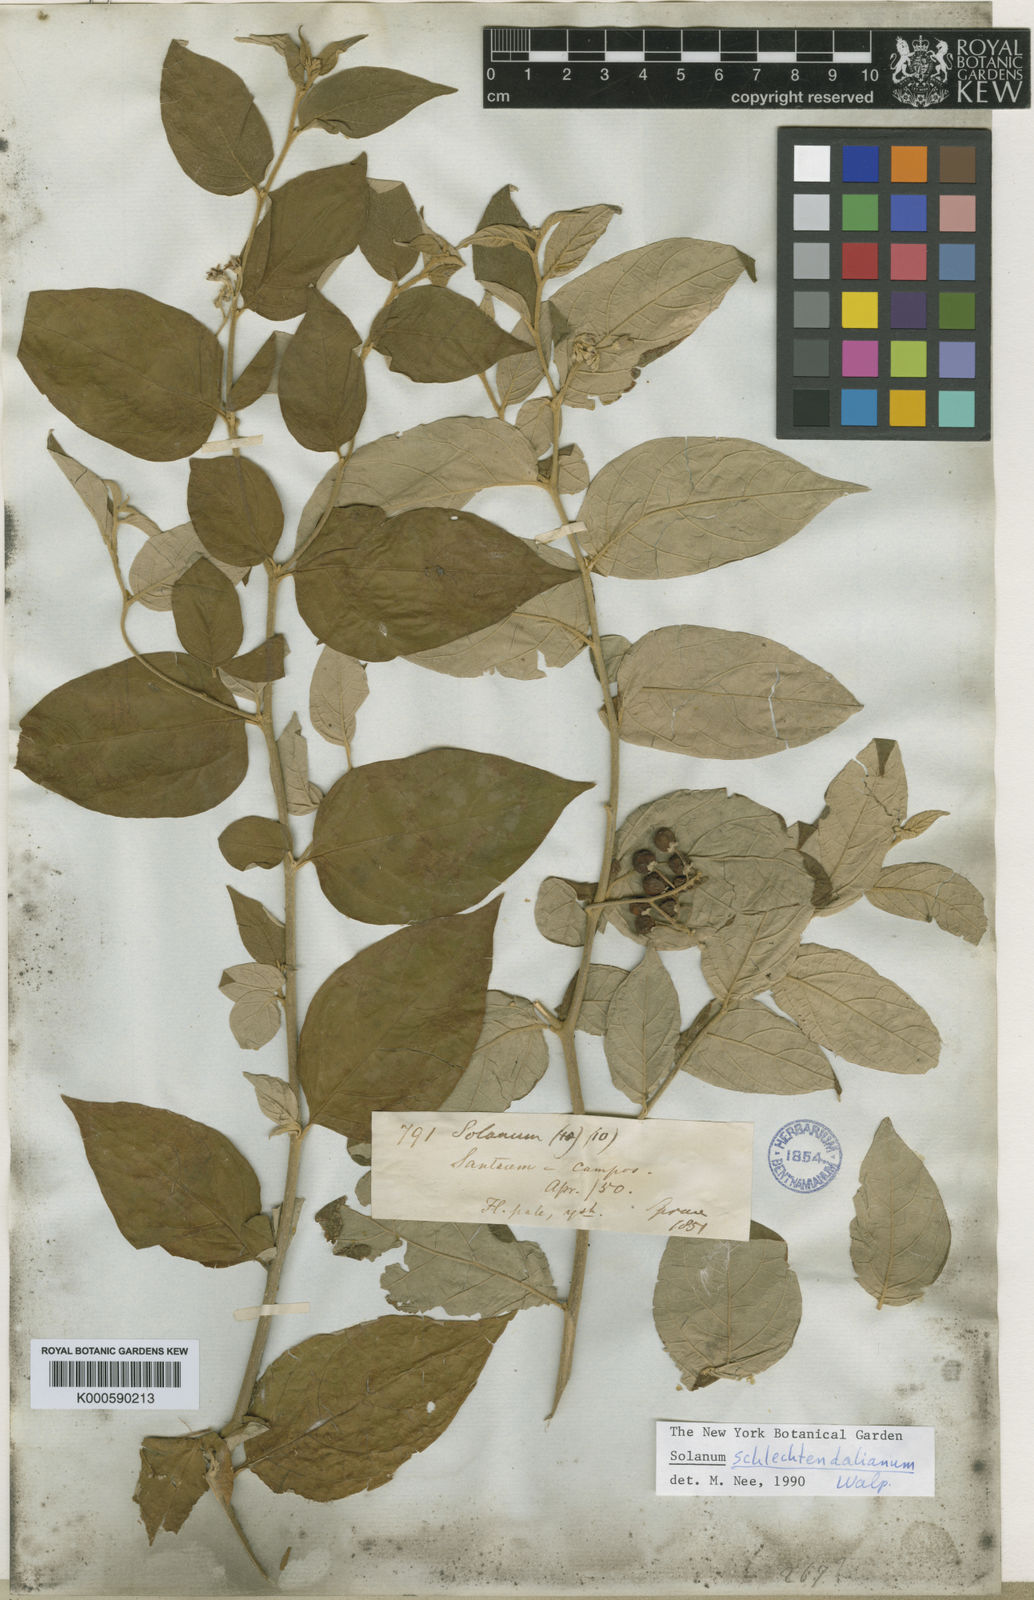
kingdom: Plantae
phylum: Tracheophyta
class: Magnoliopsida
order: Solanales
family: Solanaceae
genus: Solanum
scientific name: Solanum schlechtendalianum
